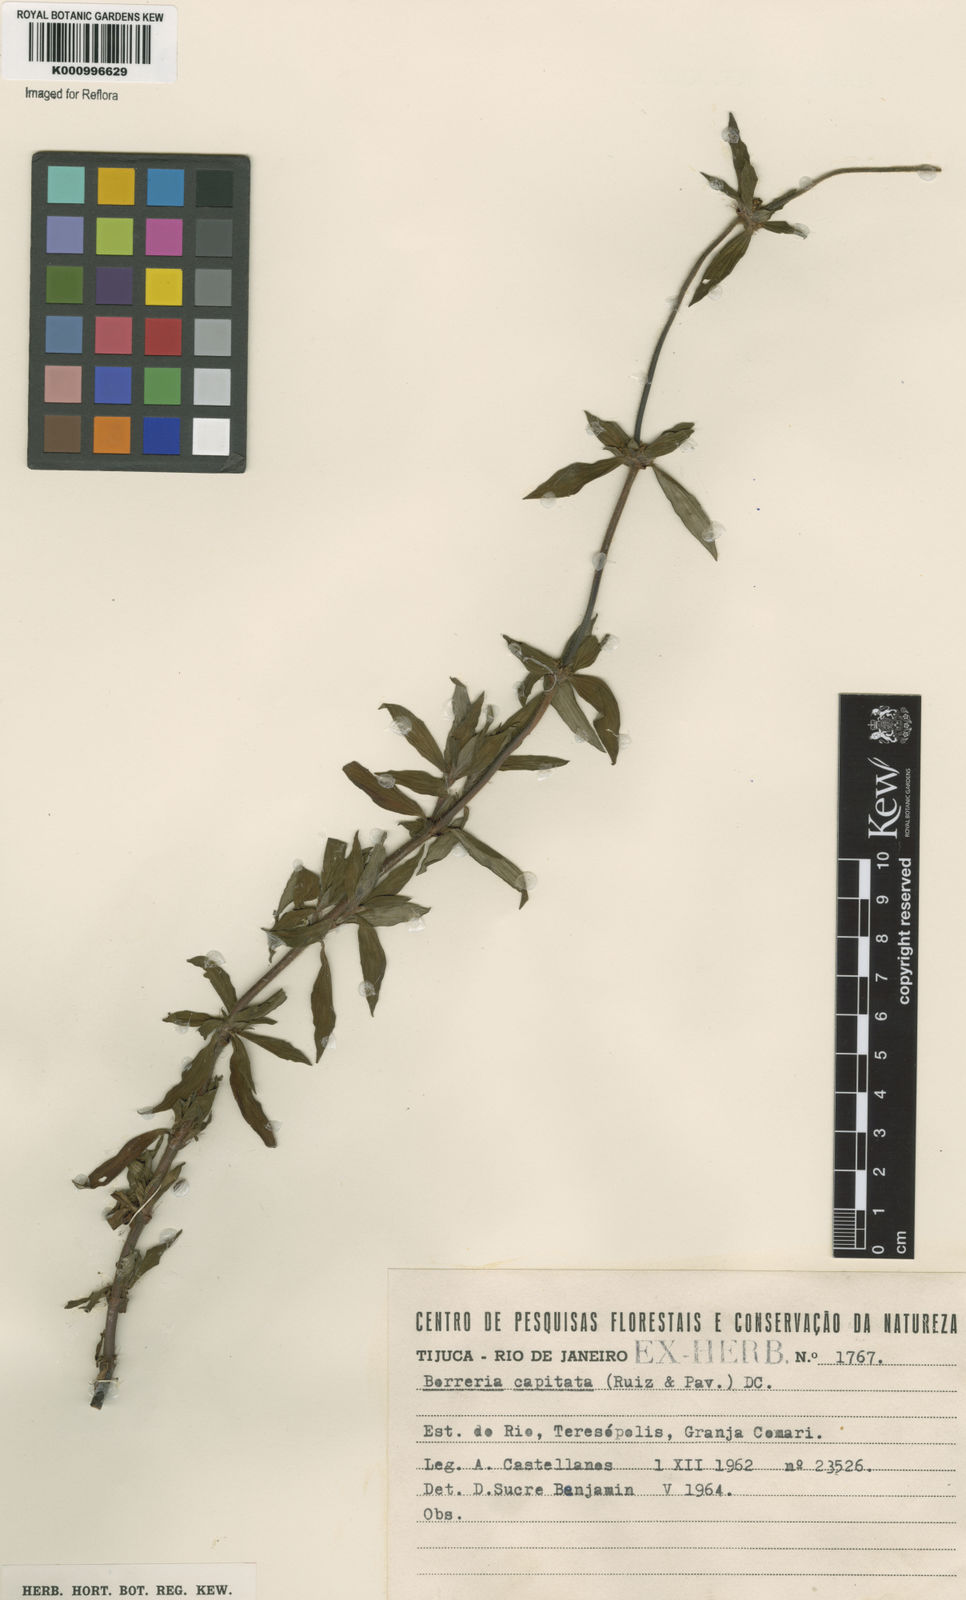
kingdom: Plantae
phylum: Tracheophyta
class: Magnoliopsida
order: Gentianales
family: Rubiaceae
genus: Spermacoce
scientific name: Spermacoce capitata
